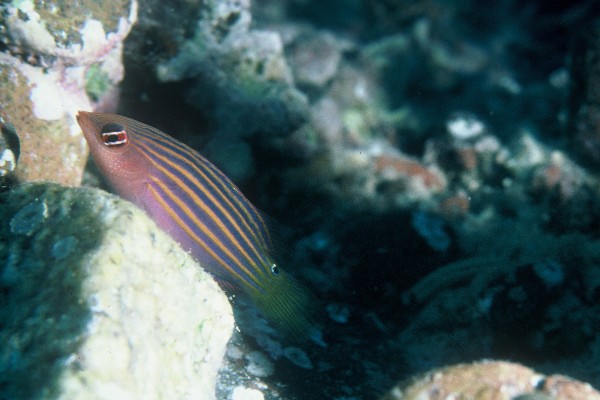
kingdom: Animalia
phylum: Chordata
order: Perciformes
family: Labridae
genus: Pseudocheilinus
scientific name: Pseudocheilinus hexataenia
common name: Sixline wrasse
